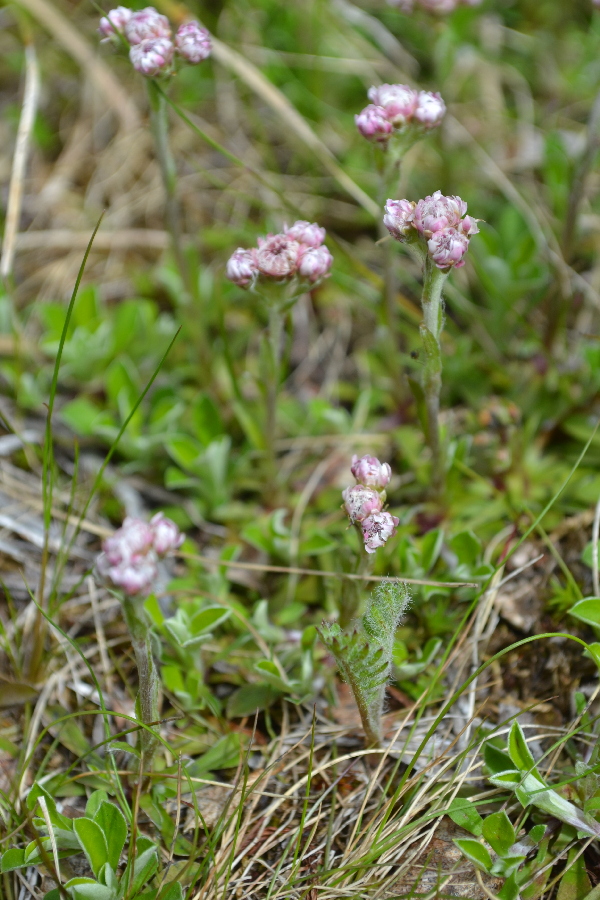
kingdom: Plantae
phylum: Tracheophyta
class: Magnoliopsida
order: Asterales
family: Asteraceae
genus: Antennaria
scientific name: Antennaria dioica
